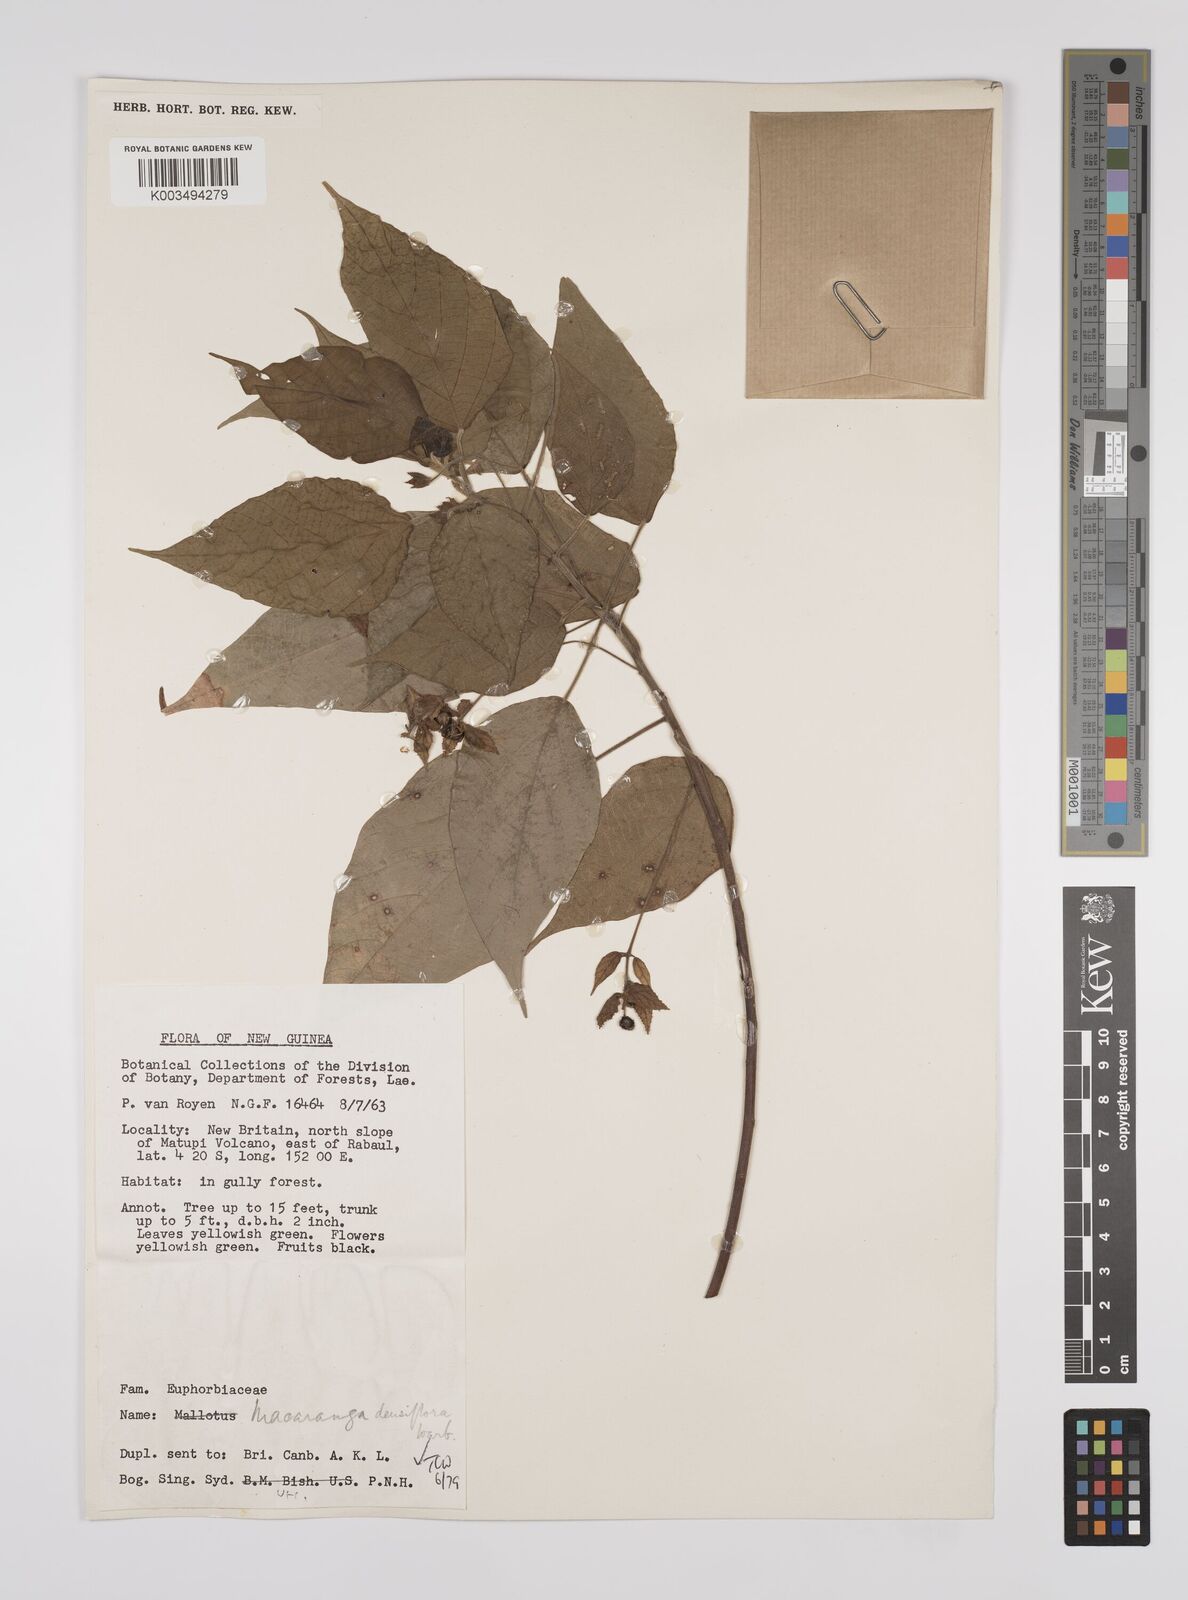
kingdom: Plantae
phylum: Tracheophyta
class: Magnoliopsida
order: Malpighiales
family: Euphorbiaceae
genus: Macaranga
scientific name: Macaranga densiflora
